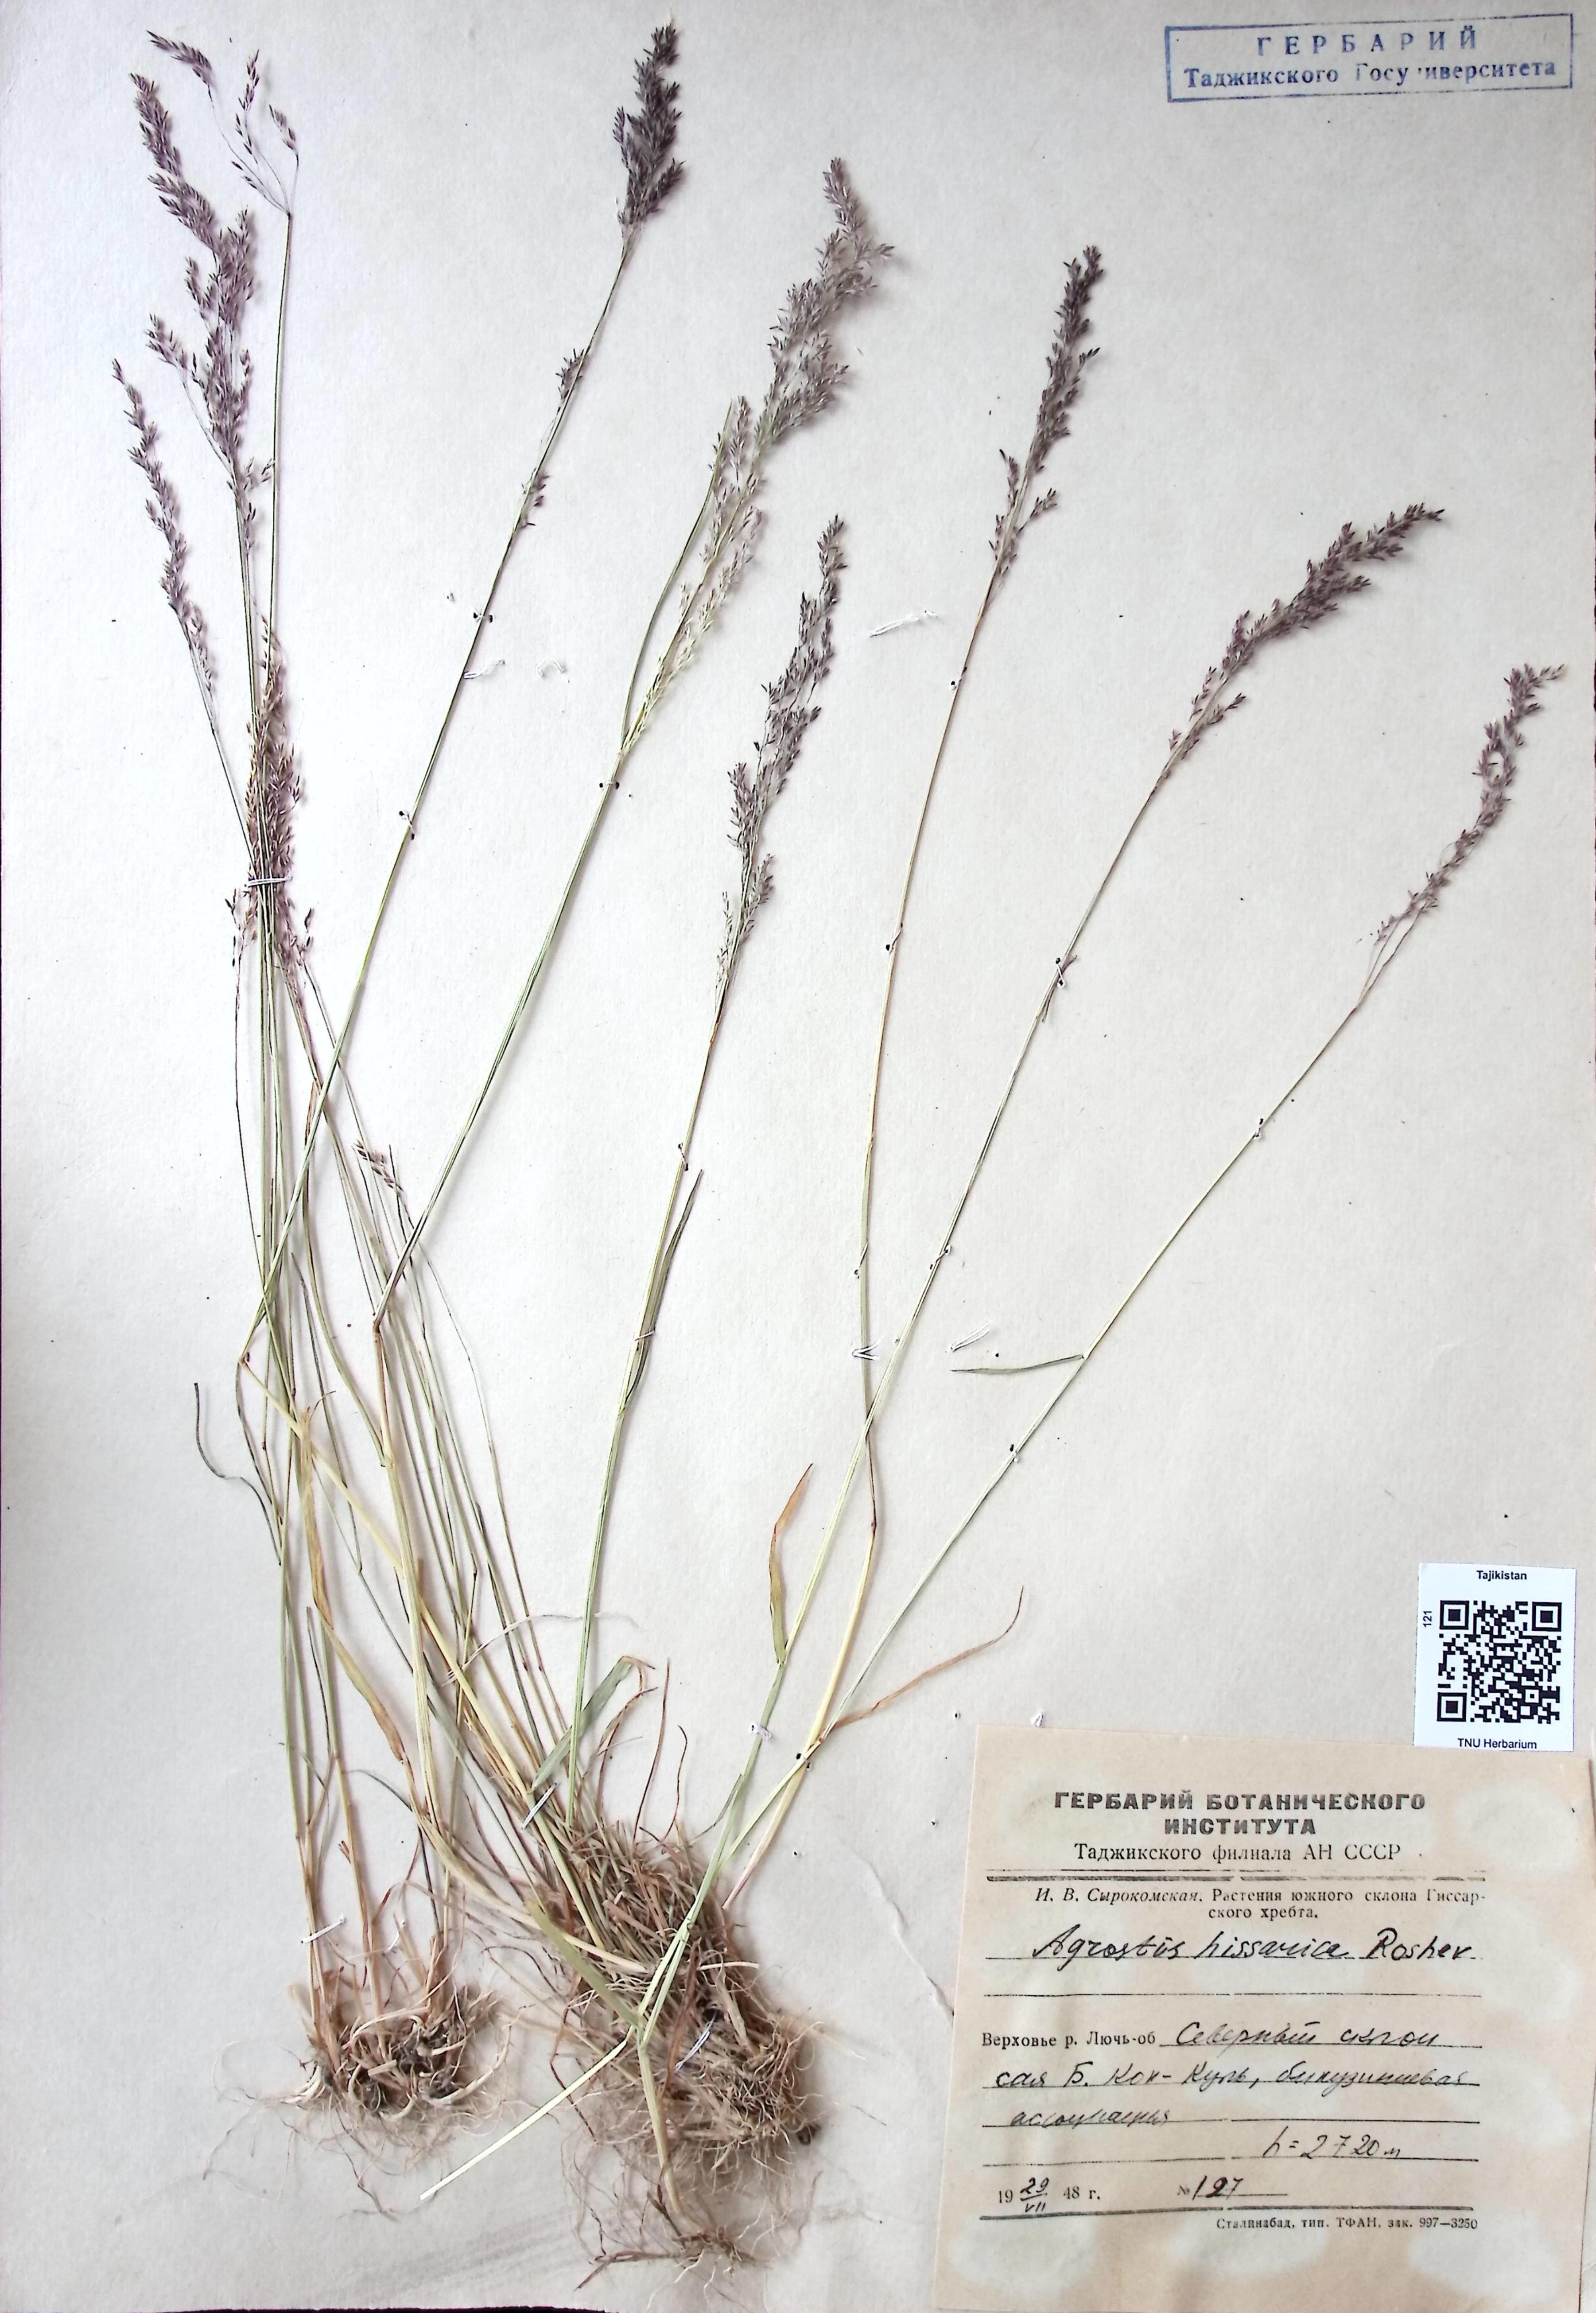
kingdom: Plantae
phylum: Tracheophyta
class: Liliopsida
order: Poales
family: Poaceae
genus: Polypogon
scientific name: Polypogon hissaricus
